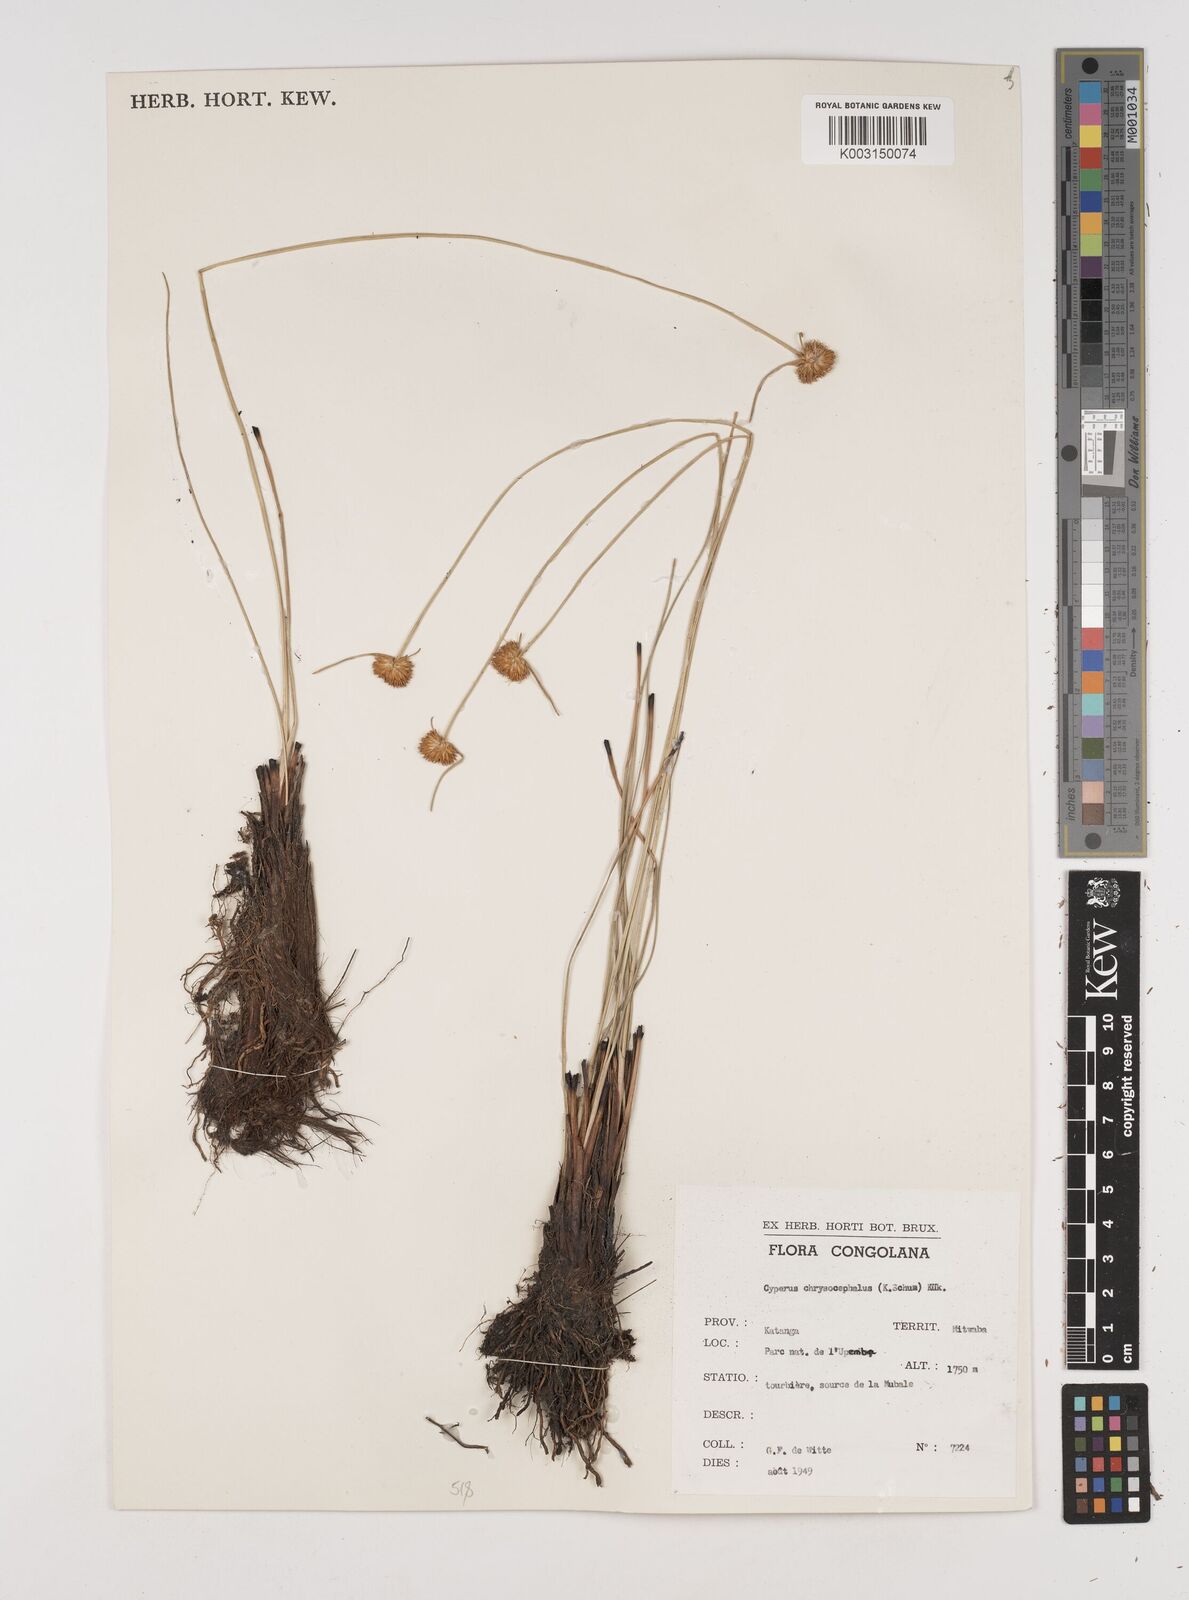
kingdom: Plantae
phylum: Tracheophyta
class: Liliopsida
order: Poales
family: Cyperaceae
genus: Cyperus
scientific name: Cyperus chrysocephalus
